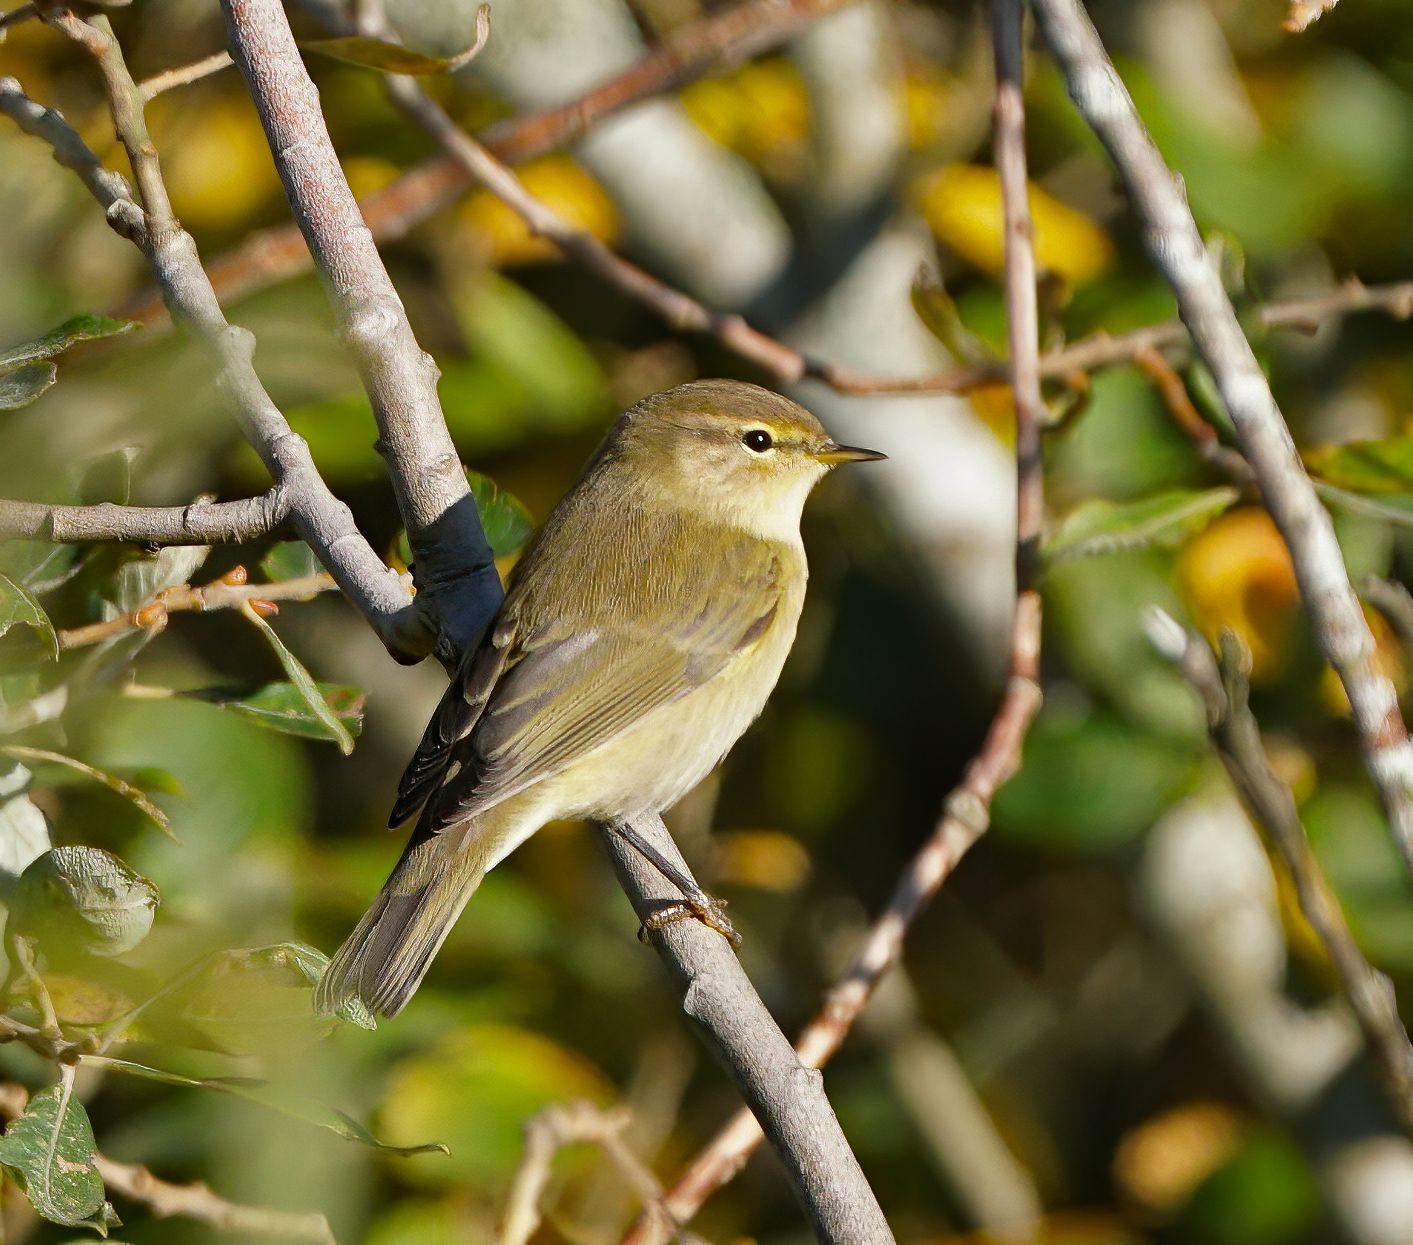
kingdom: Animalia
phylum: Chordata
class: Aves
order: Passeriformes
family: Phylloscopidae
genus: Phylloscopus
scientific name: Phylloscopus collybita
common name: Gransanger
